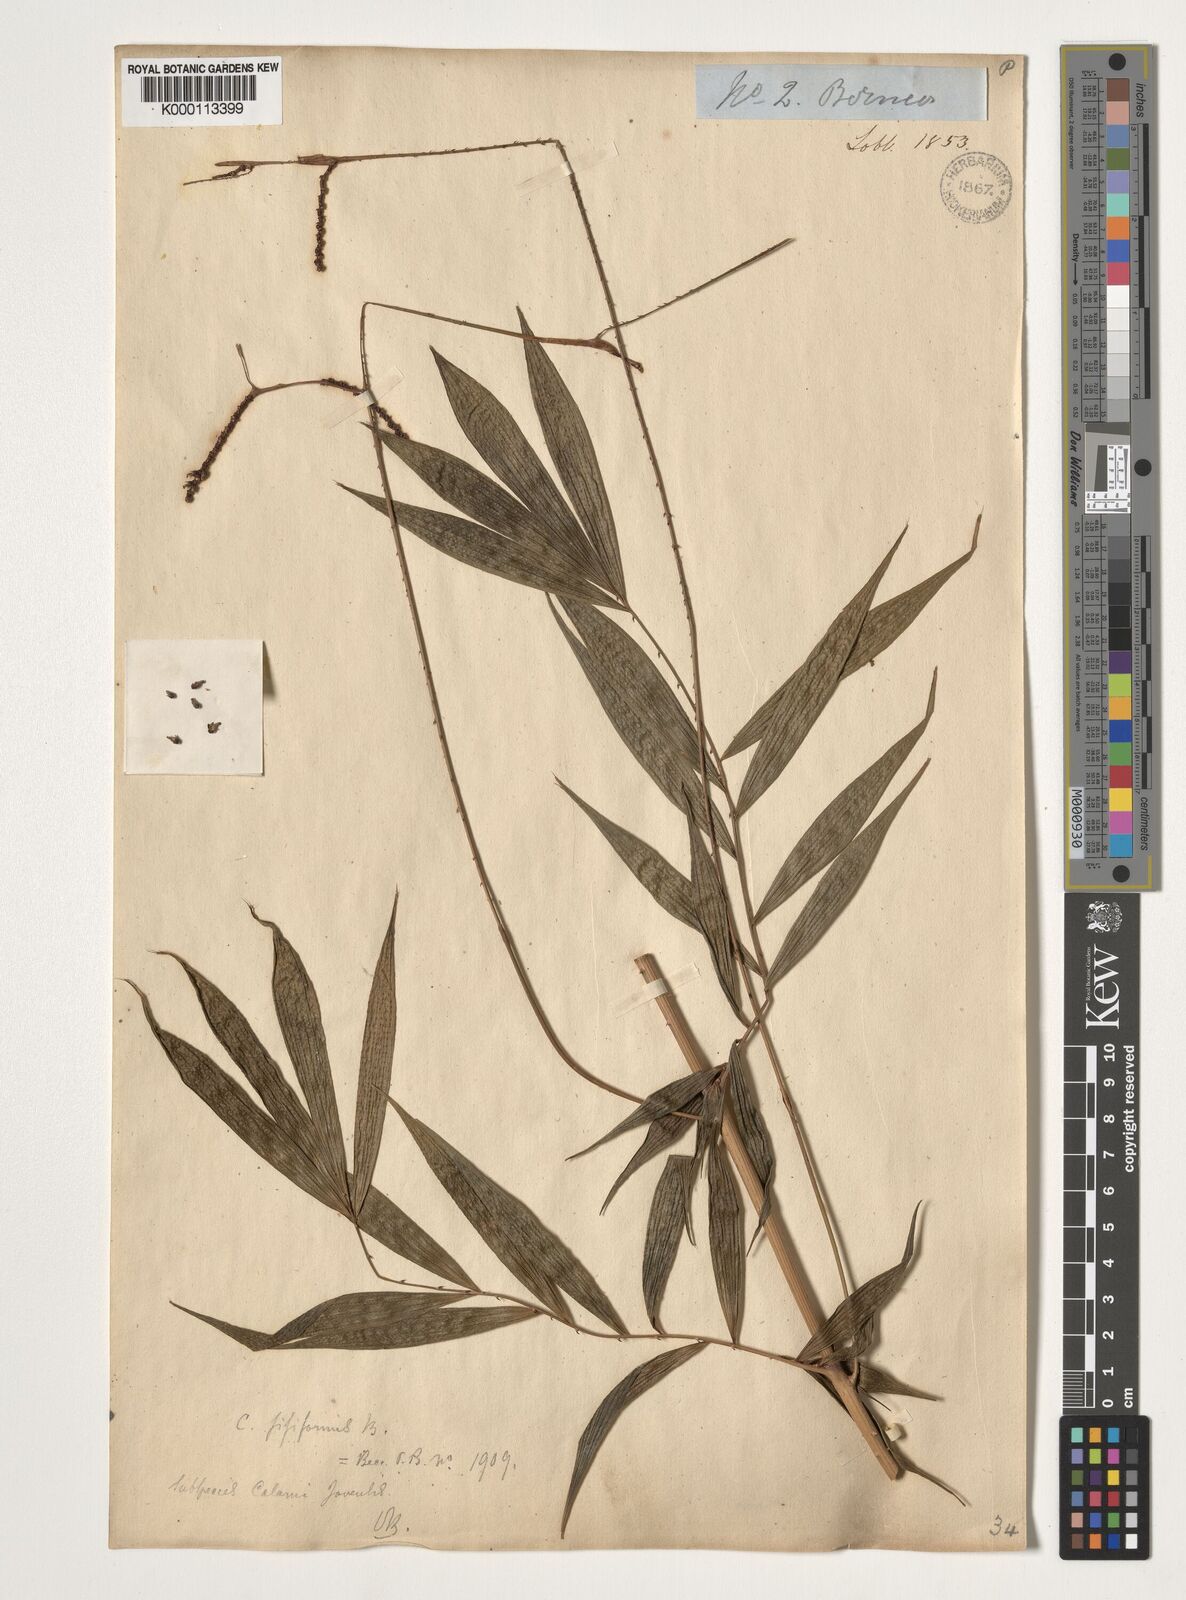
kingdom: Plantae
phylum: Tracheophyta
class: Liliopsida
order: Arecales
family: Arecaceae
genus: Calamus
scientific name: Calamus javensis
